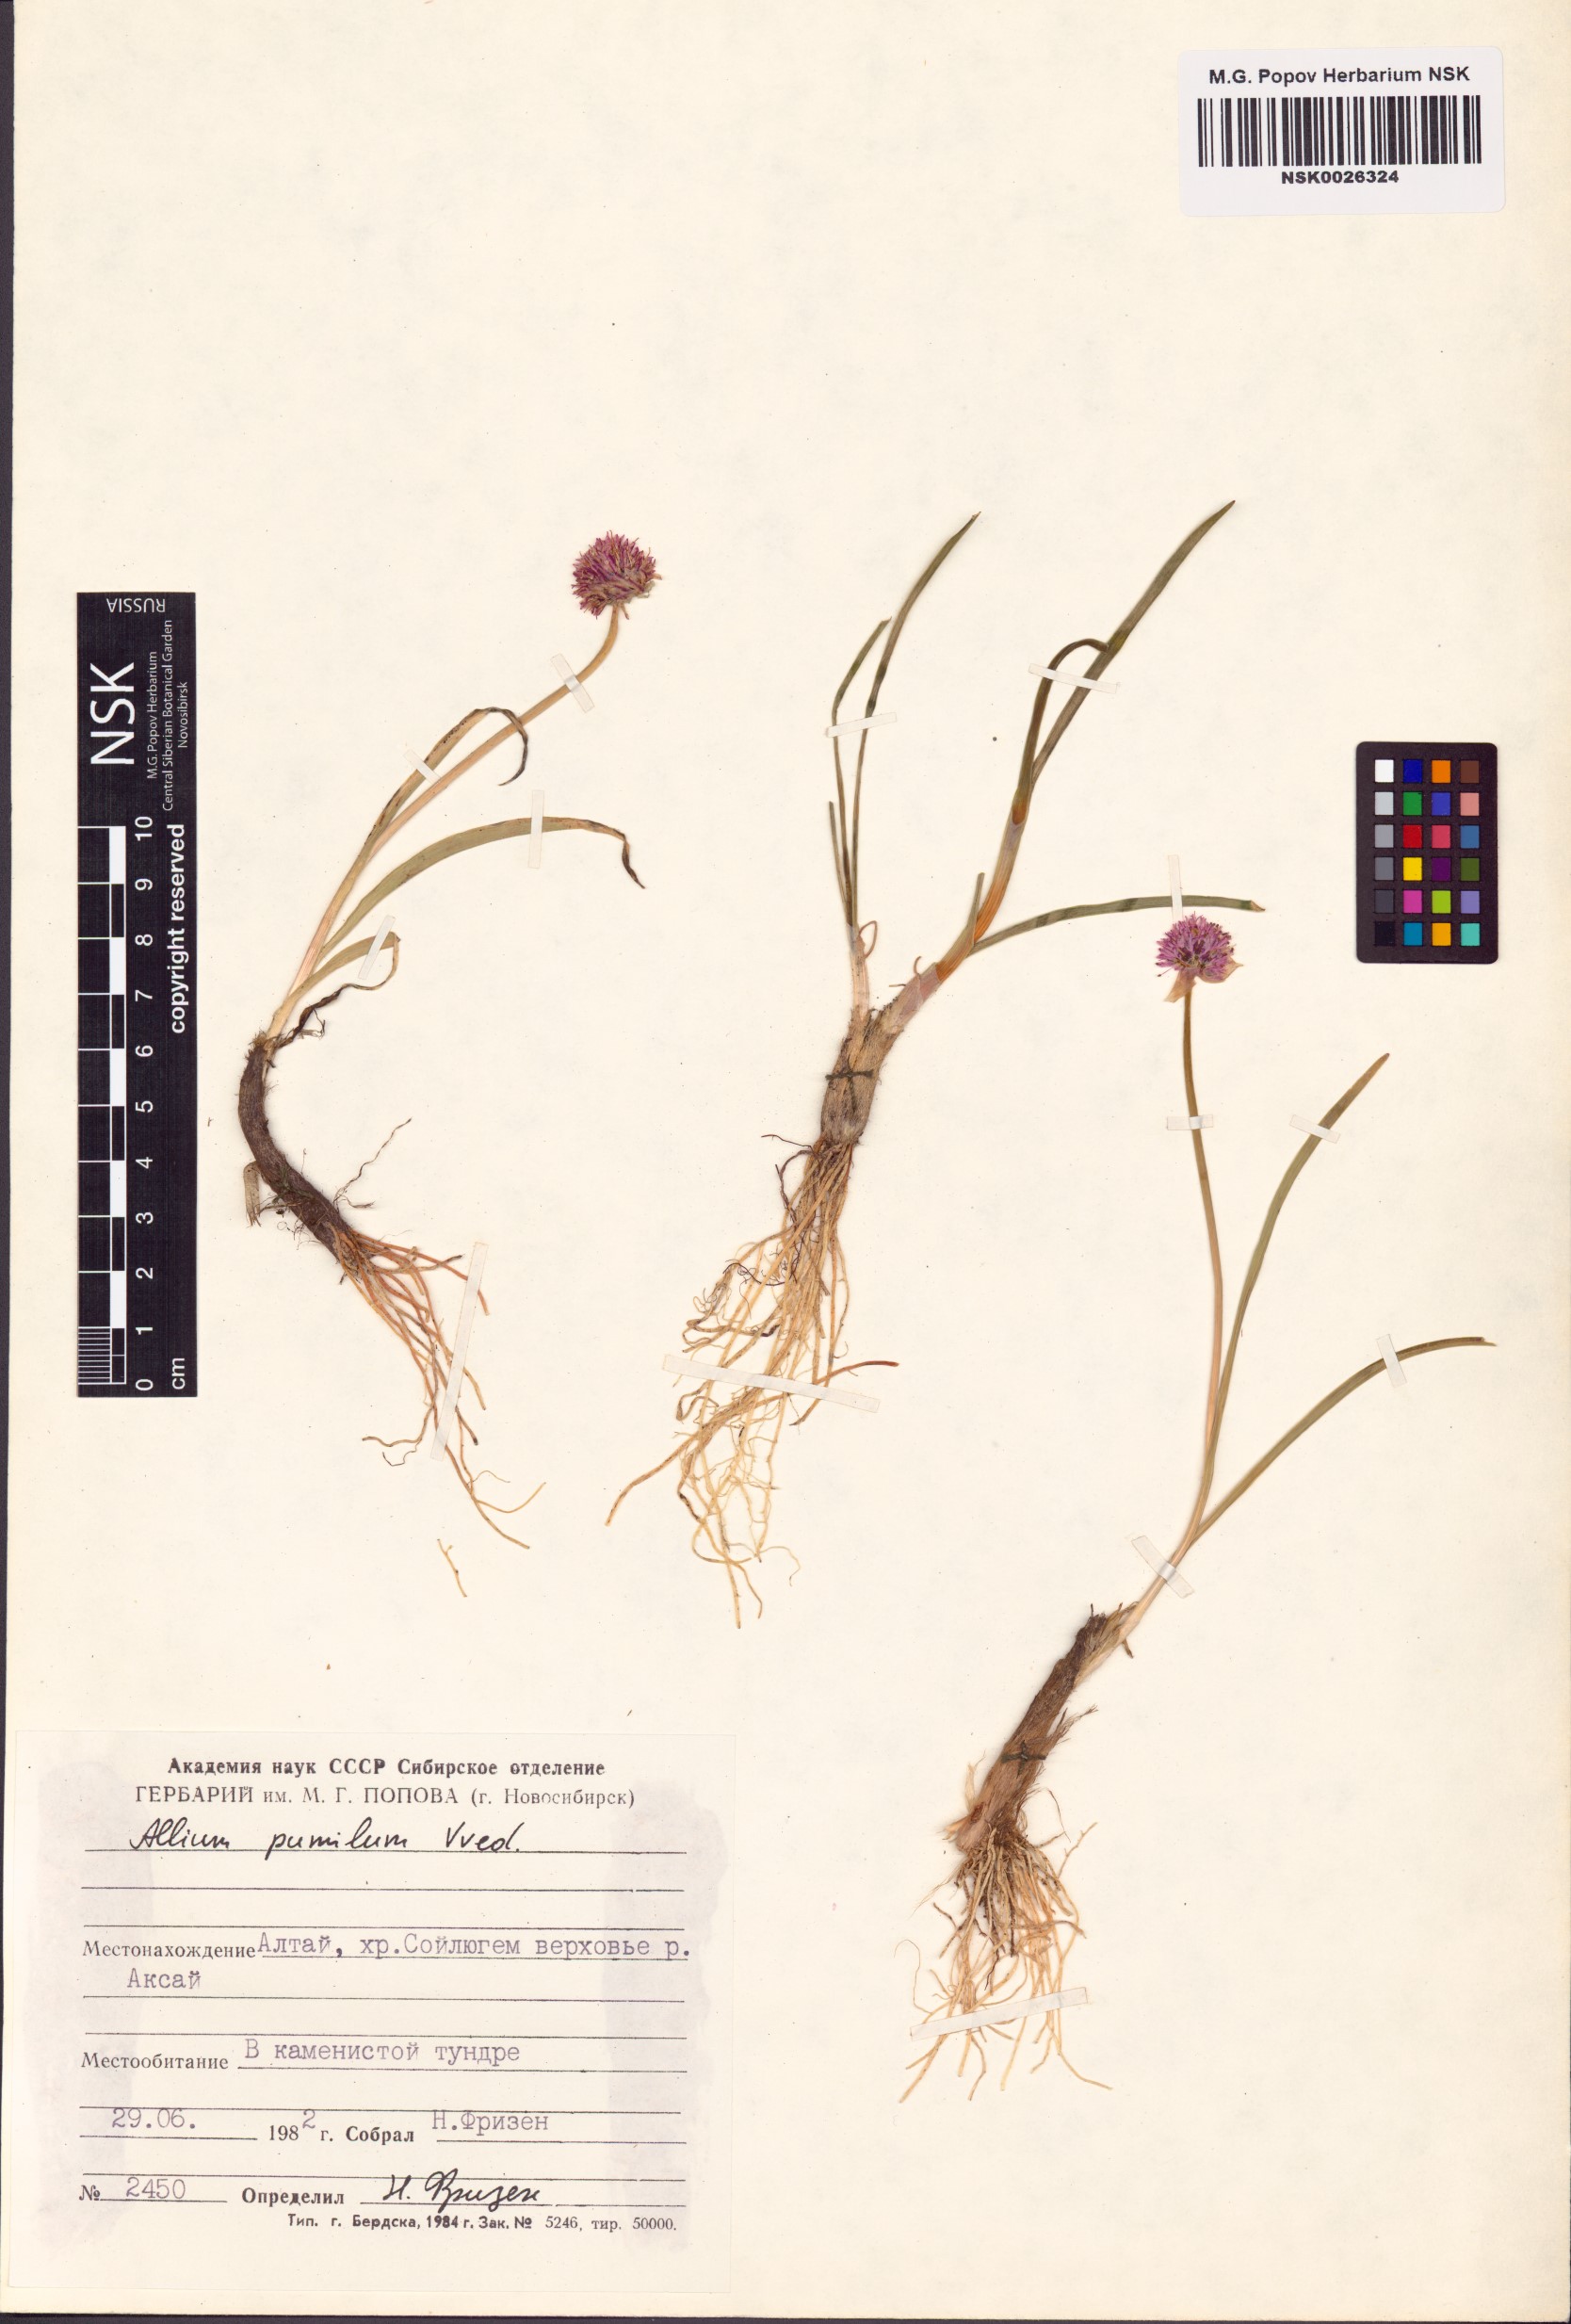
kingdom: Plantae
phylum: Tracheophyta
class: Liliopsida
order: Asparagales
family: Amaryllidaceae
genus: Allium
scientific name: Allium pumilum
